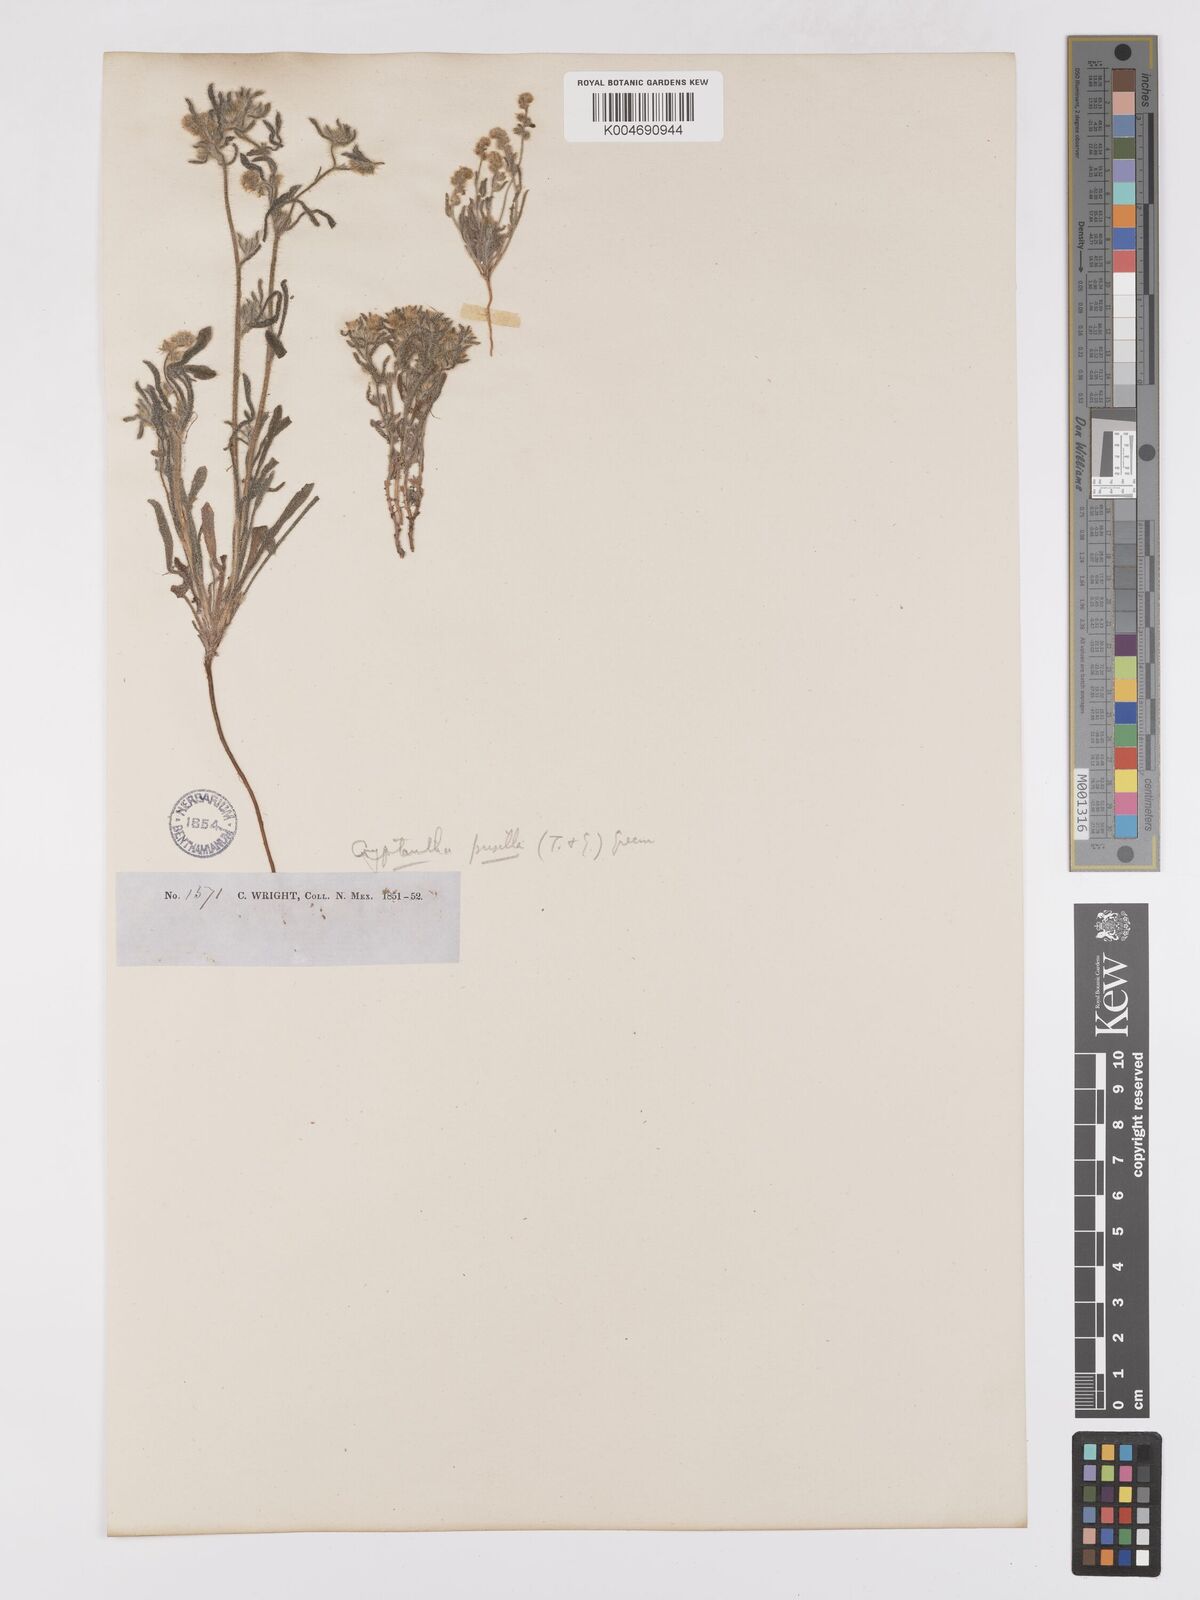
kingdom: Plantae
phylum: Tracheophyta
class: Magnoliopsida
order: Boraginales
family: Boraginaceae
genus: Johnstonella
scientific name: Johnstonella pusilla
